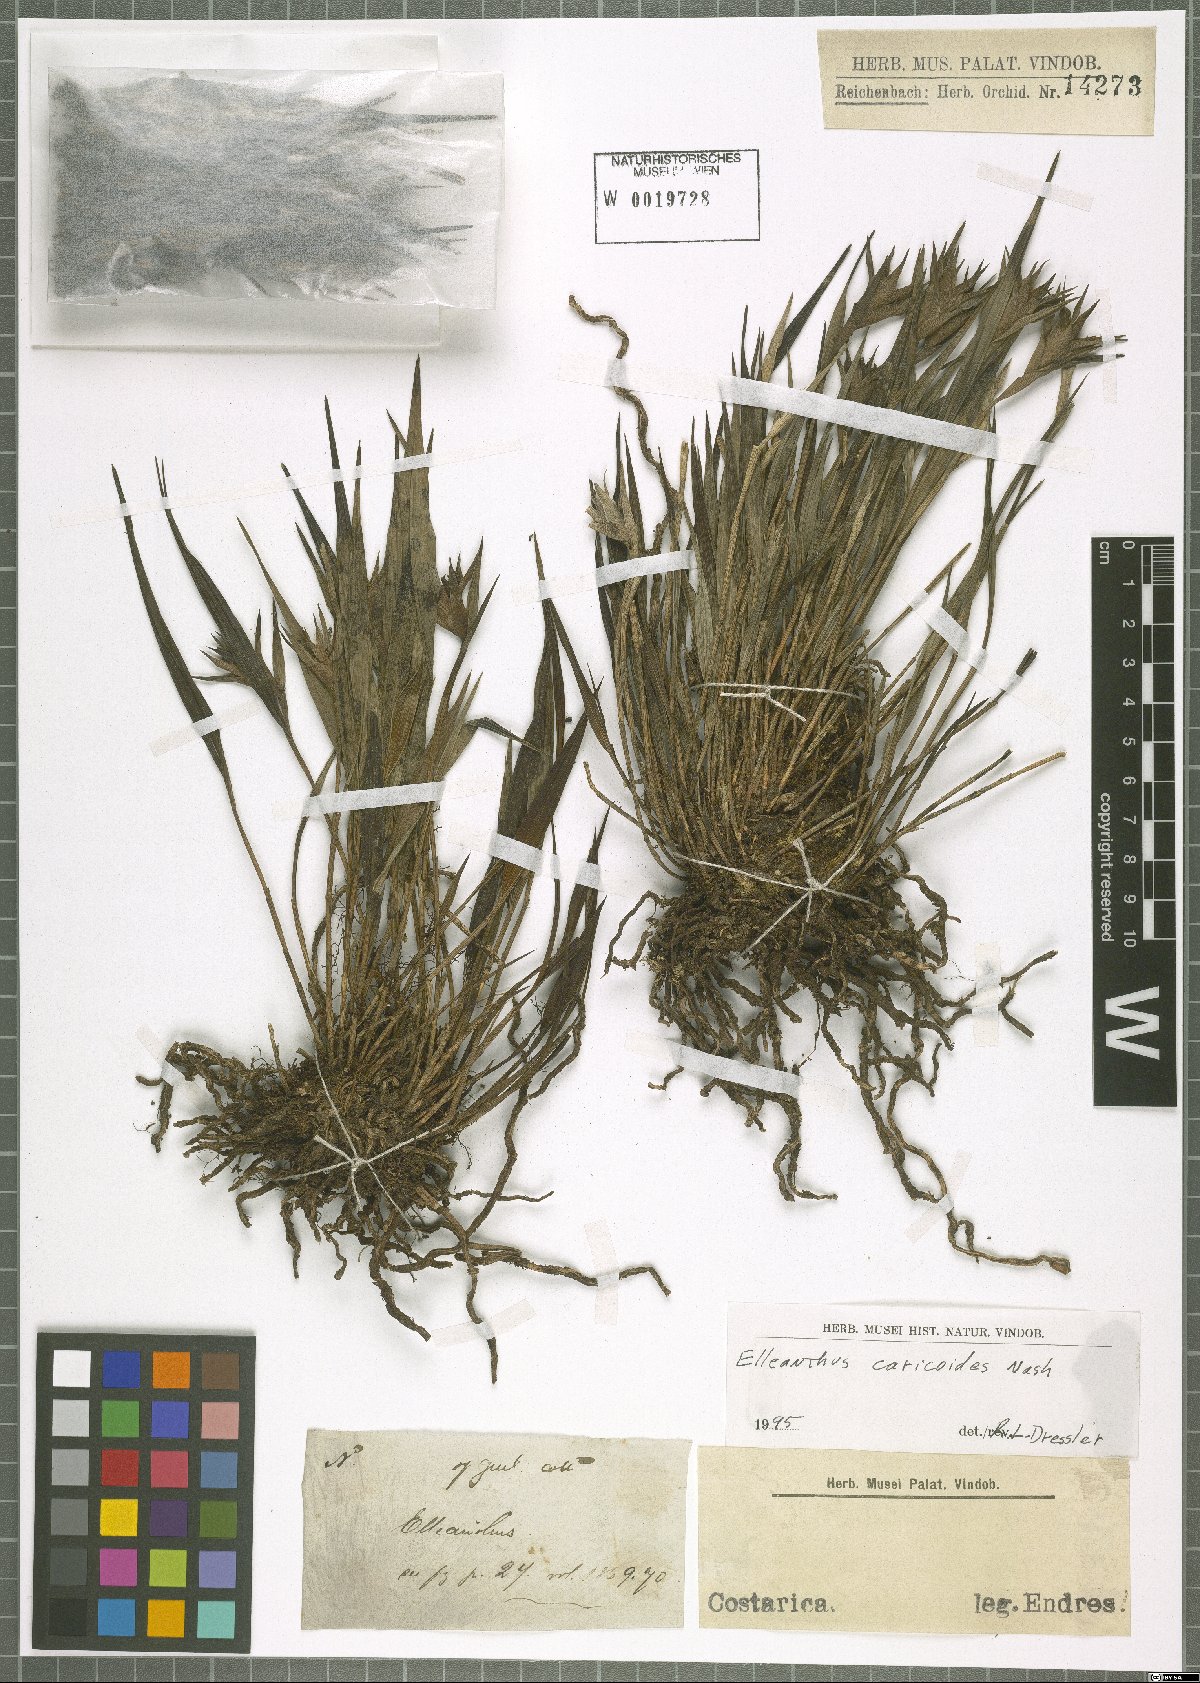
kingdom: Plantae
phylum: Tracheophyta
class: Liliopsida
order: Asparagales
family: Orchidaceae
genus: Elleanthus
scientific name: Elleanthus caricoides
